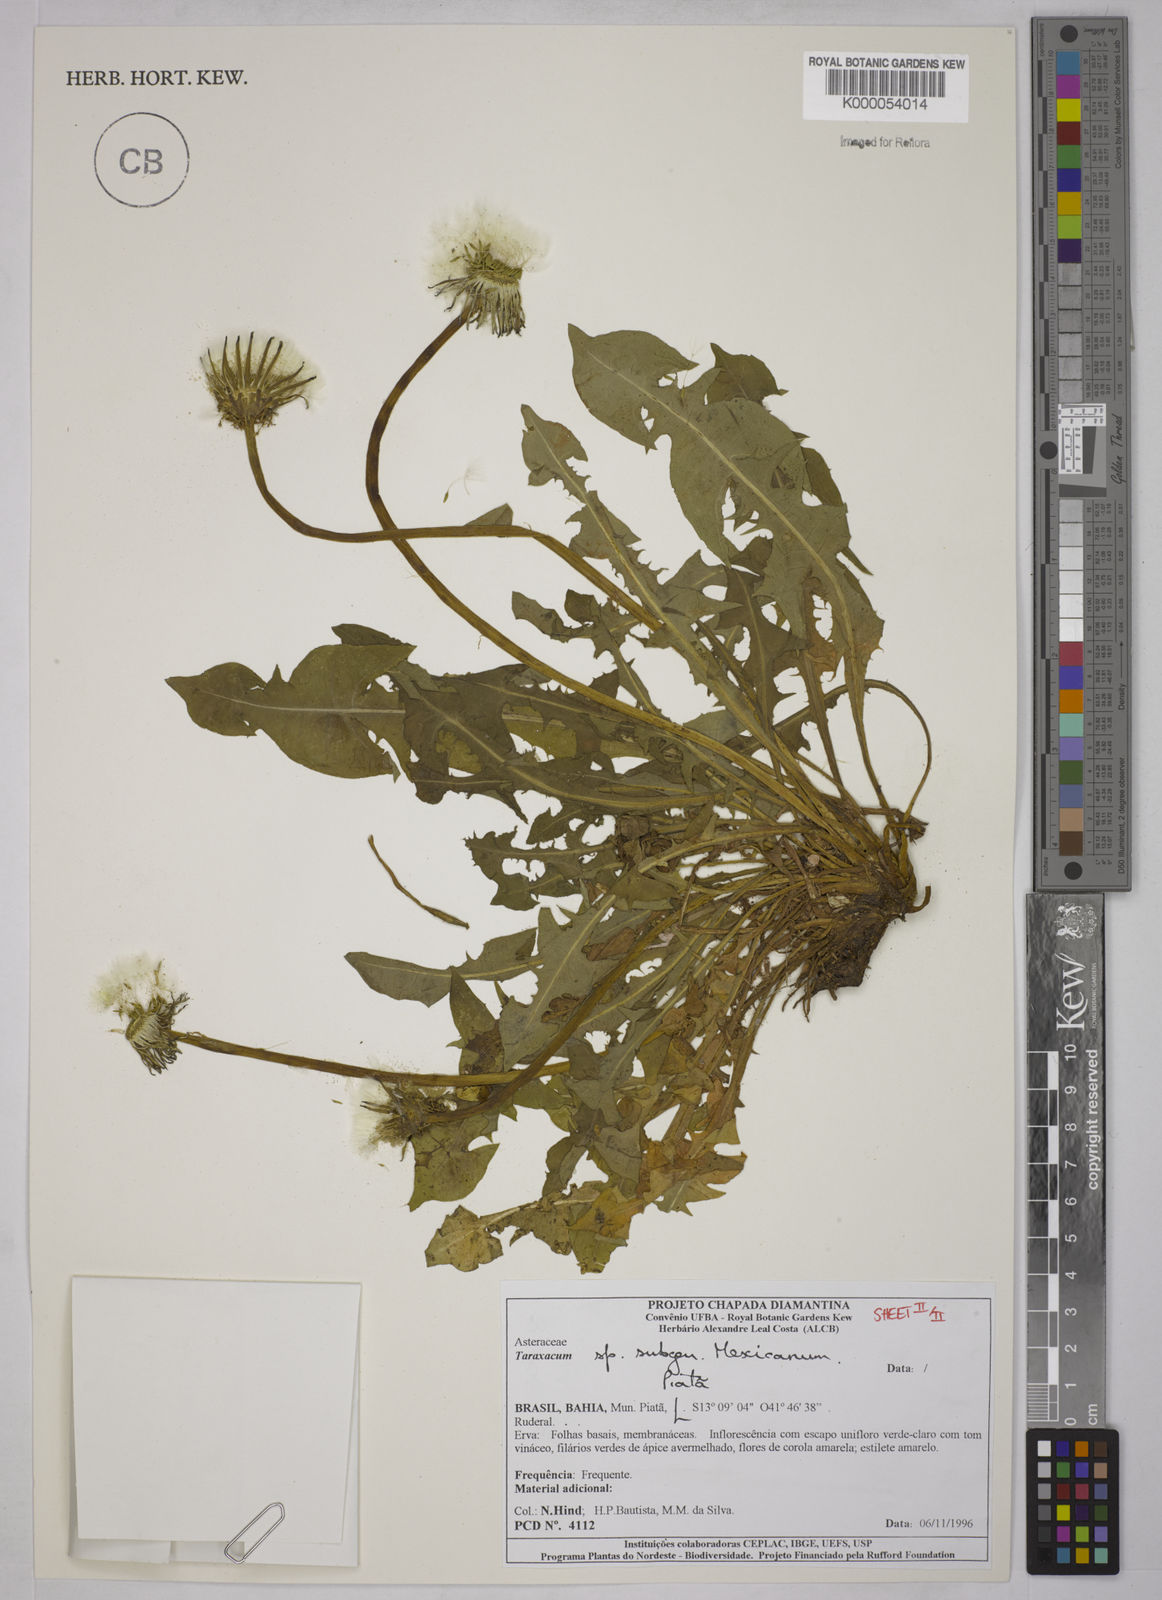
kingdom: Plantae
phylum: Tracheophyta
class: Magnoliopsida
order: Asterales
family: Asteraceae
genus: Taraxacum
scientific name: Taraxacum
